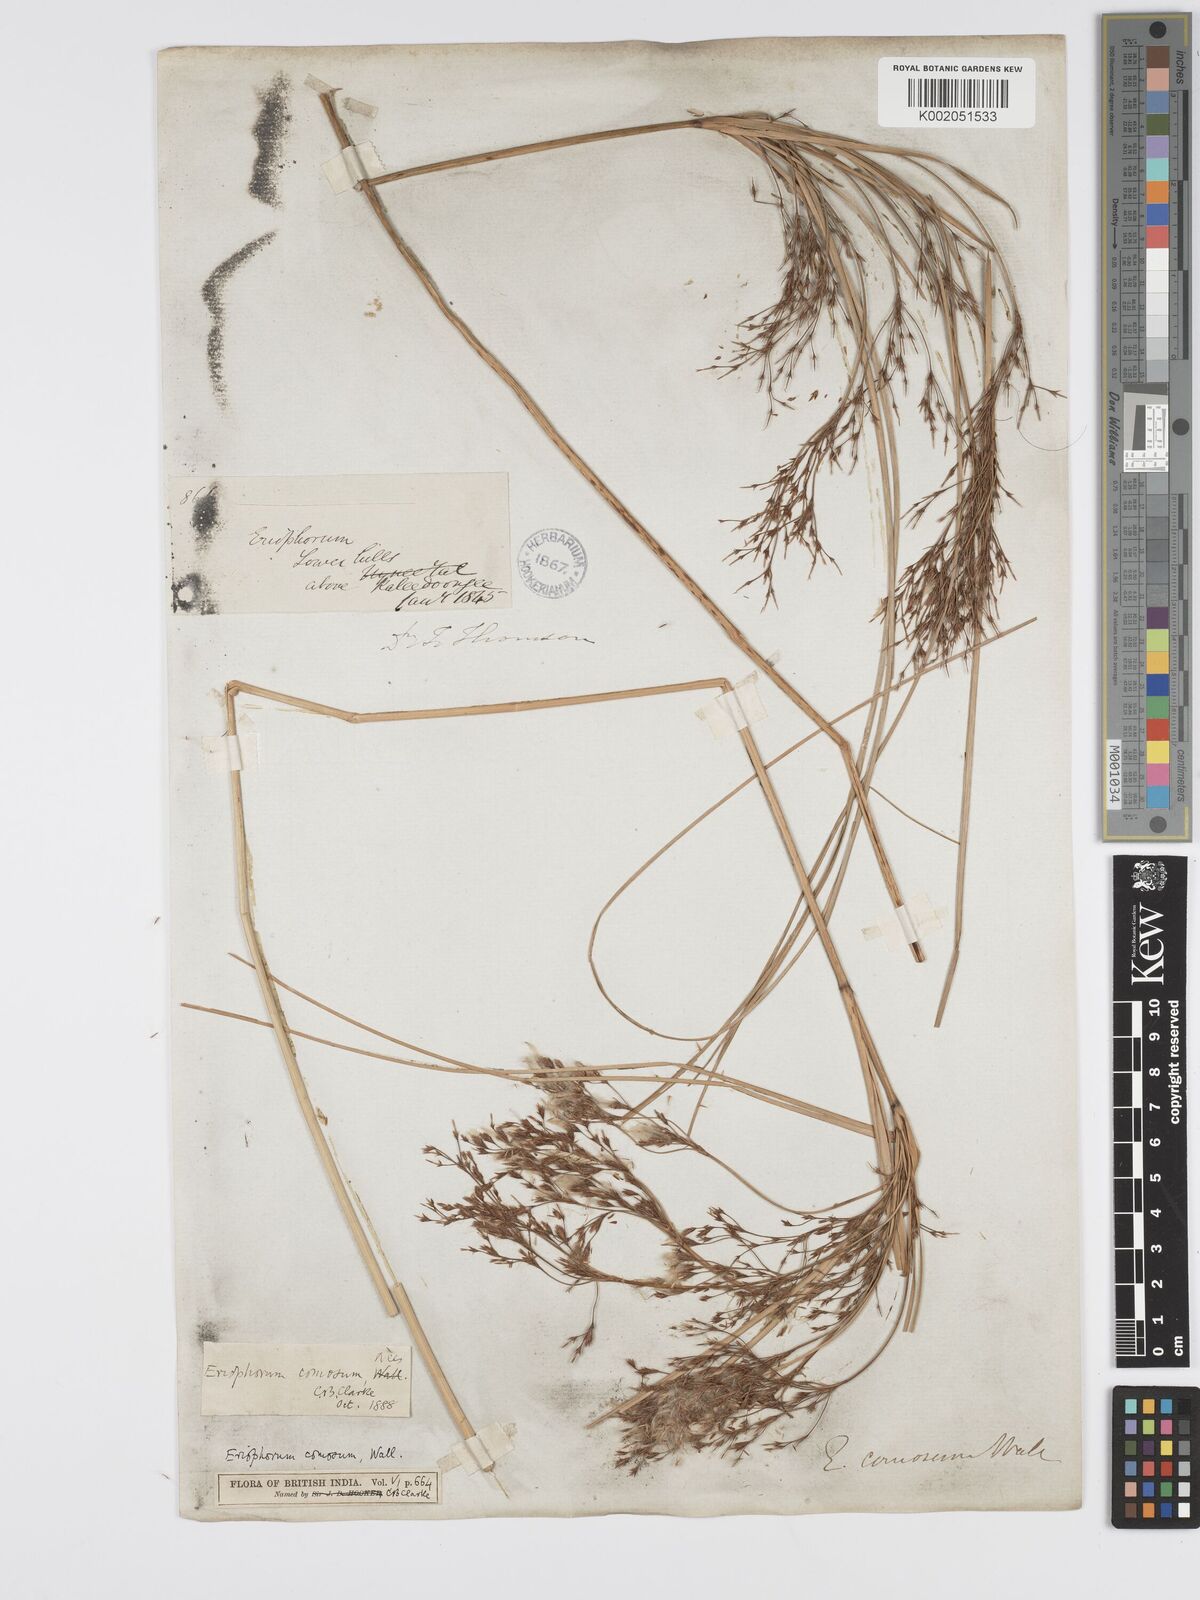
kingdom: Plantae
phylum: Tracheophyta
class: Liliopsida
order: Poales
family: Cyperaceae
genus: Erioscirpus
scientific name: Erioscirpus comosus
